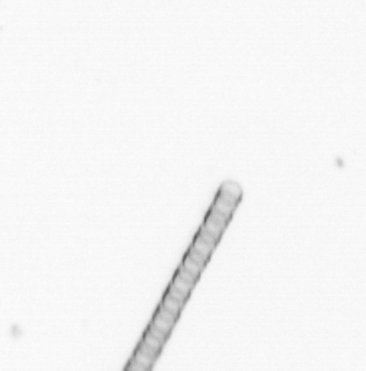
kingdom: Chromista
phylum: Ochrophyta
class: Bacillariophyceae
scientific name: Bacillariophyceae
